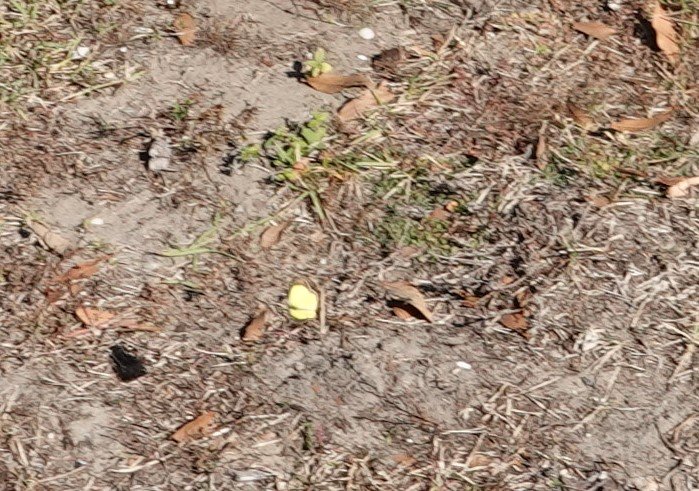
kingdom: Animalia
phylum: Arthropoda
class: Insecta
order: Lepidoptera
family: Pieridae
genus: Pyrisitia
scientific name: Pyrisitia lisa
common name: Little Yellow
